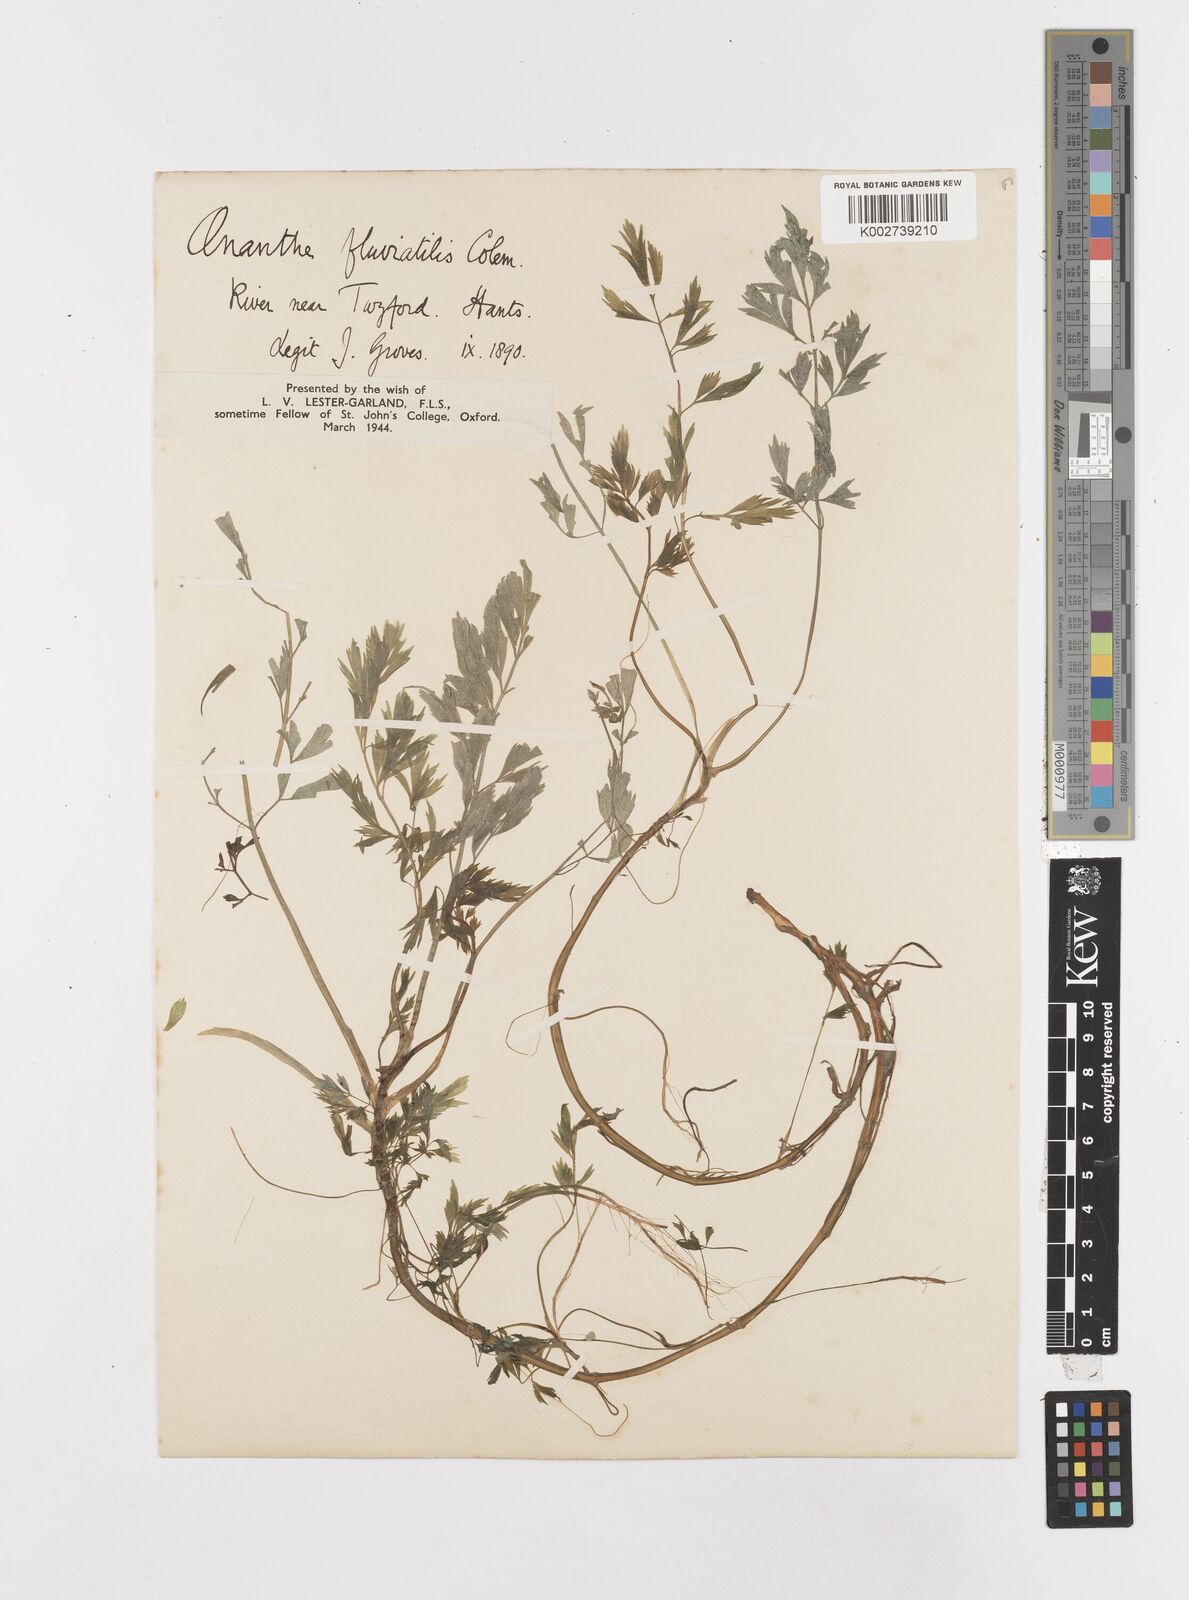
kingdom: Plantae
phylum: Tracheophyta
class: Magnoliopsida
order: Apiales
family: Apiaceae
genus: Oenanthe
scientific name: Oenanthe fluviatilis
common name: River water-dropwort
